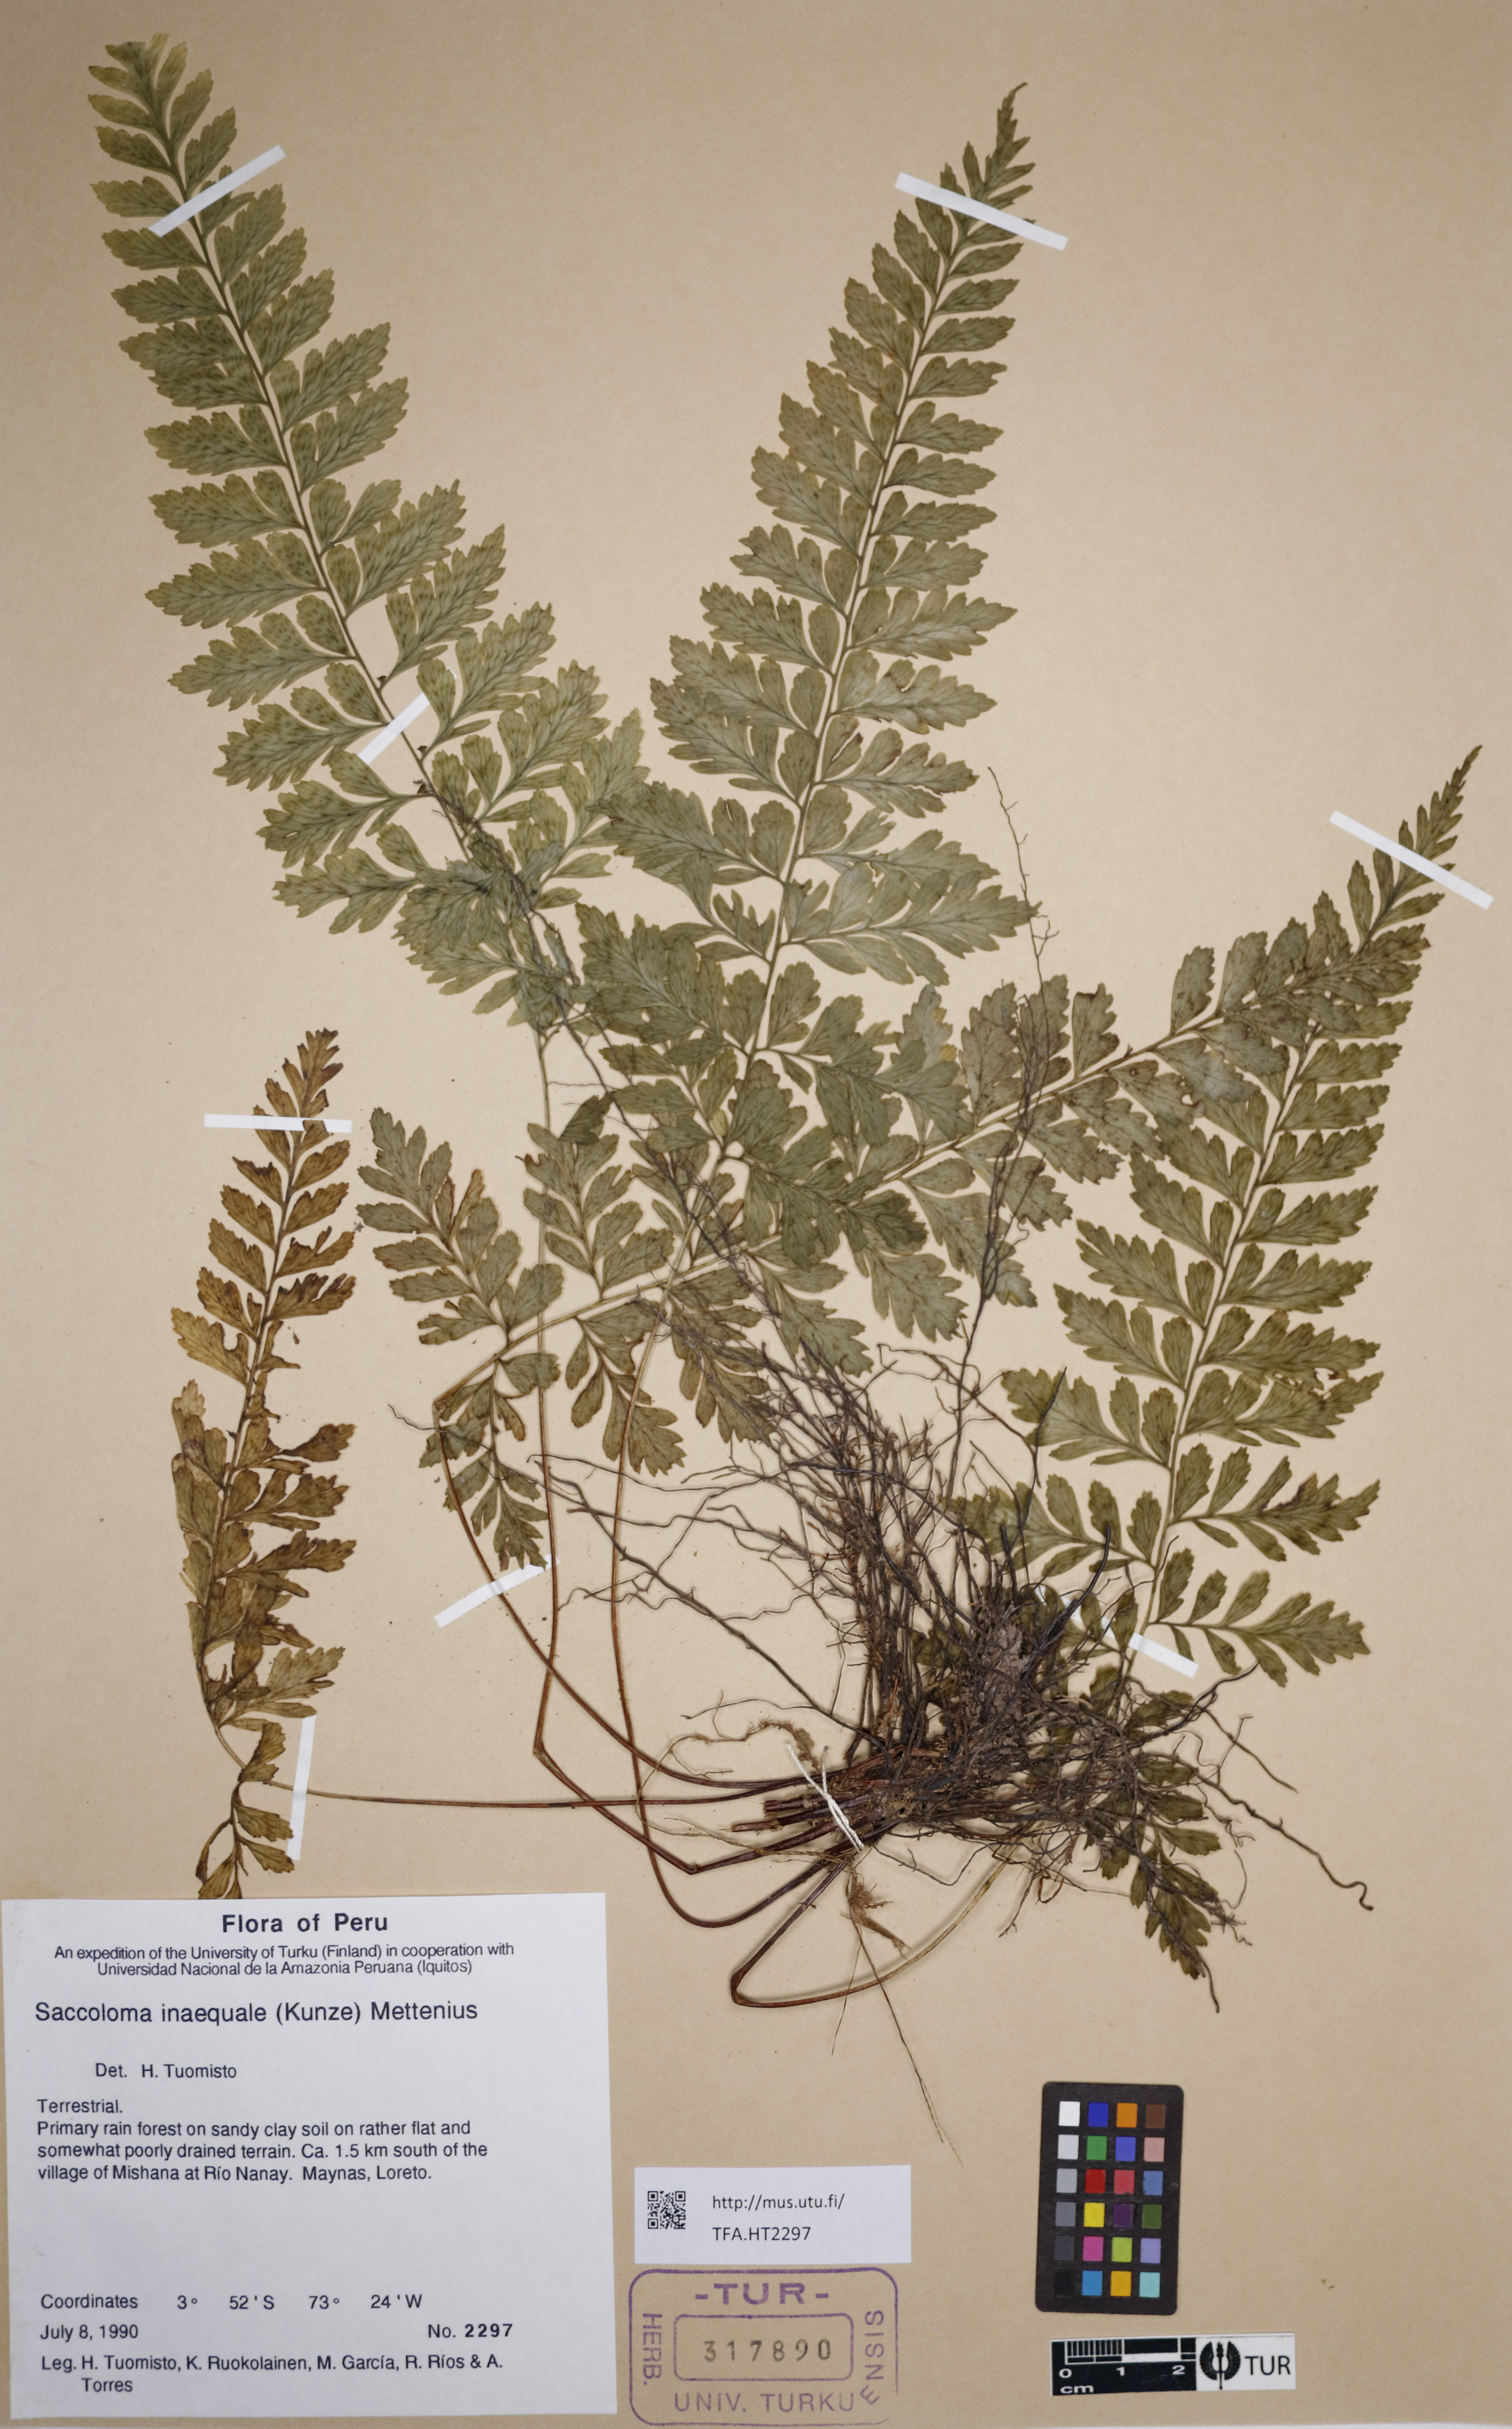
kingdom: Plantae
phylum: Tracheophyta
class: Polypodiopsida
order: Polypodiales
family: Saccolomataceae
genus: Saccoloma
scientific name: Saccoloma inaequale
